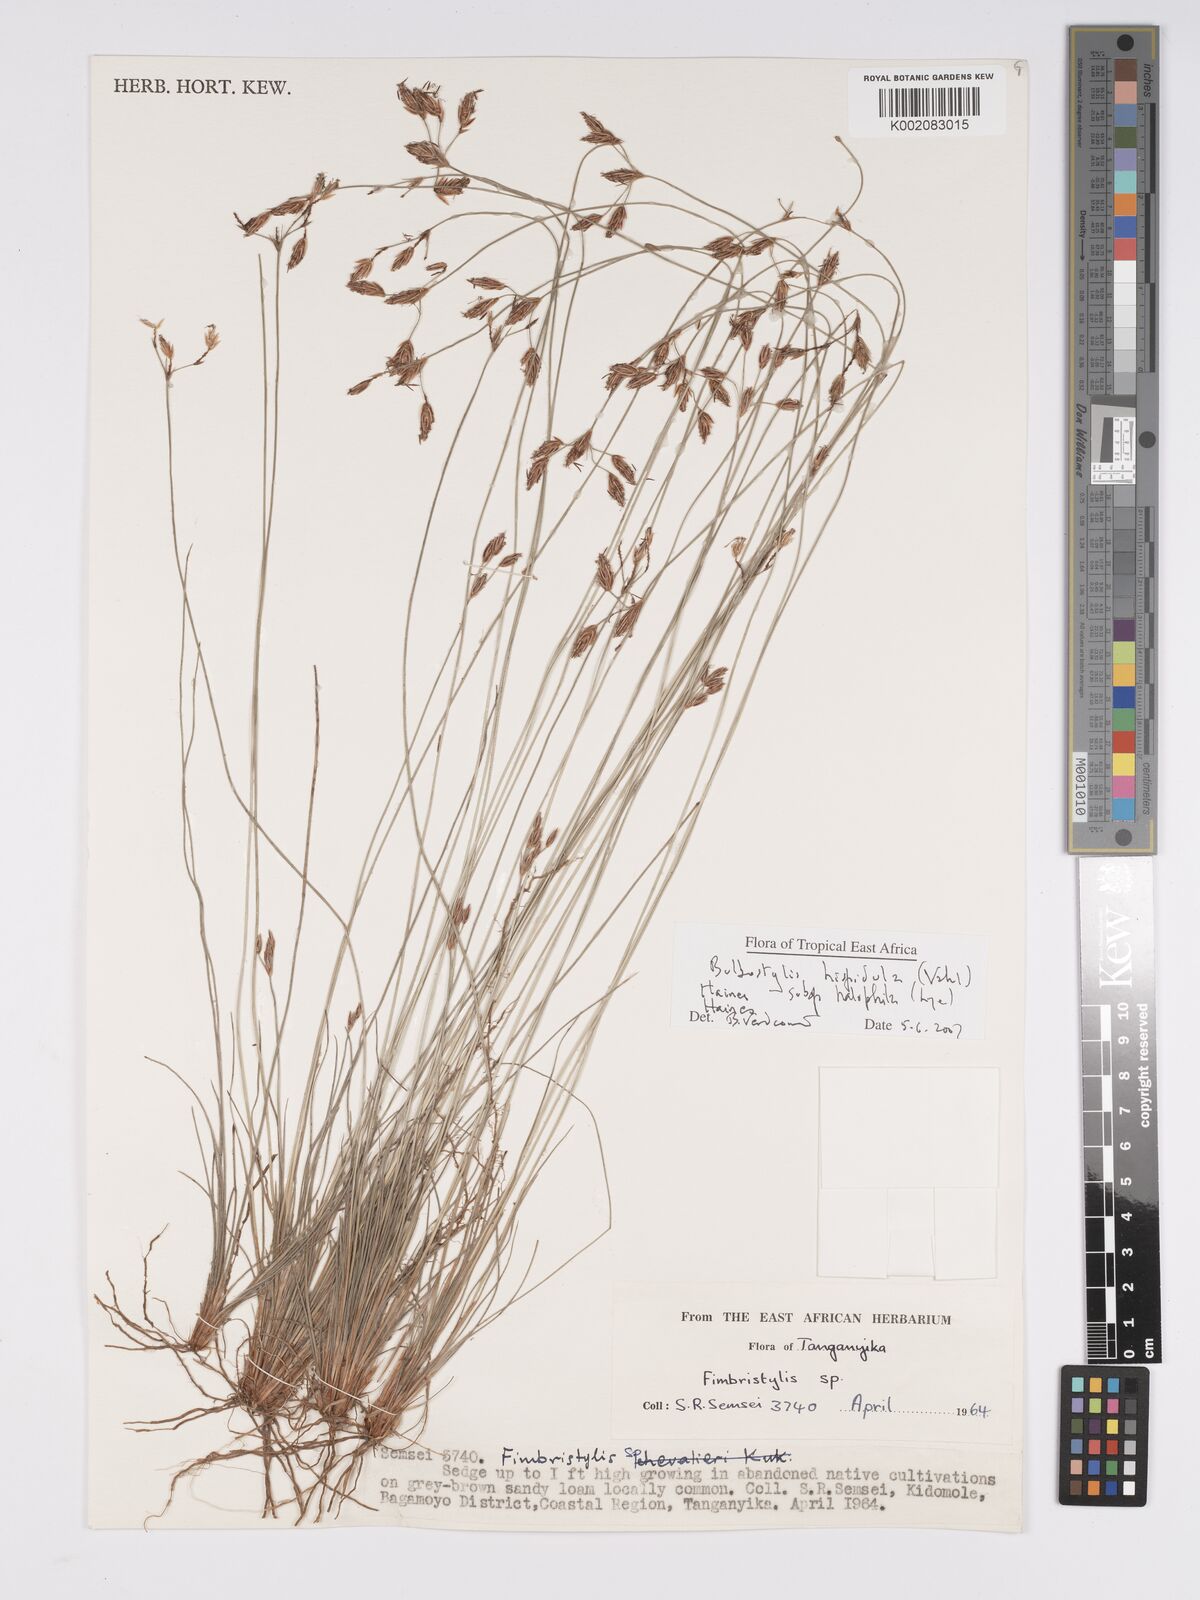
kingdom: Plantae
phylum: Tracheophyta
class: Liliopsida
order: Poales
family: Cyperaceae
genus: Bulbostylis
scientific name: Bulbostylis hispidula
